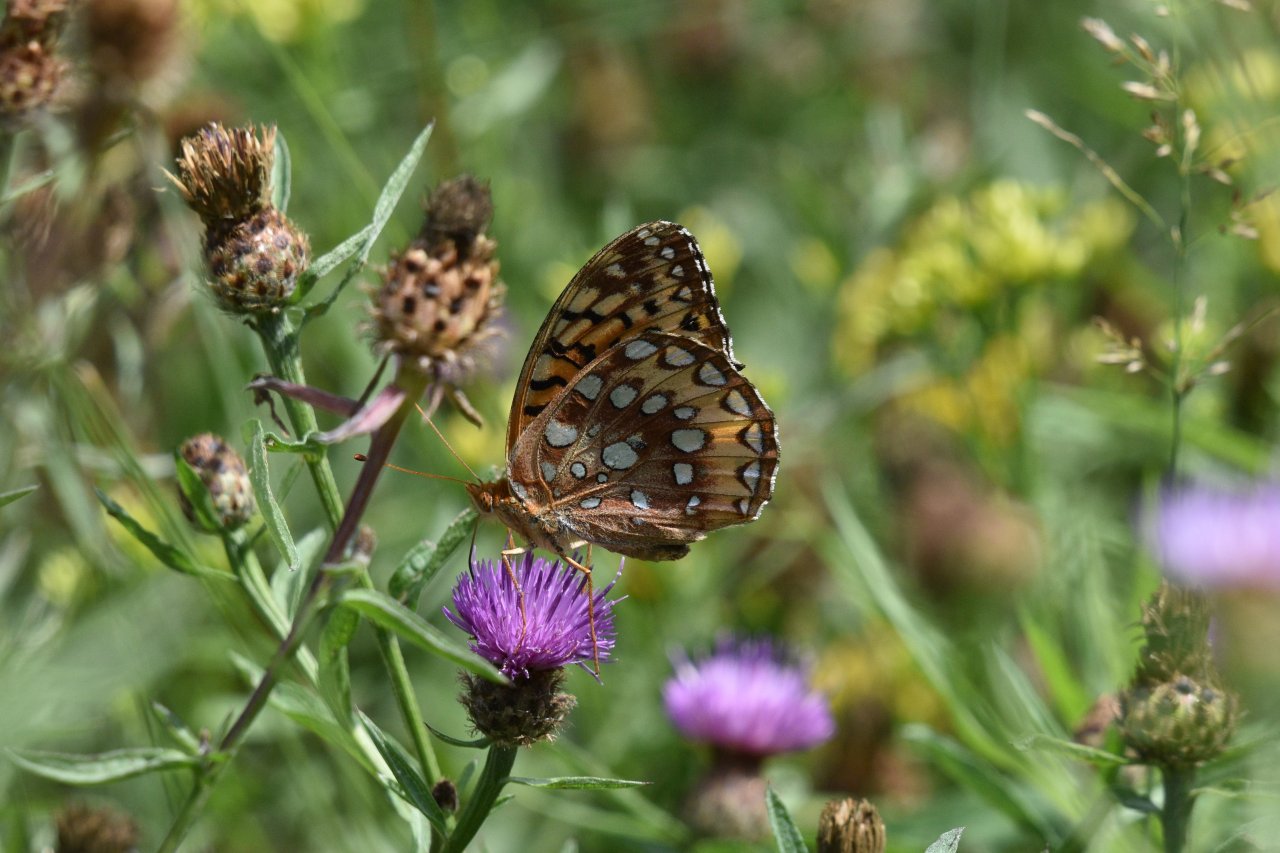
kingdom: Animalia
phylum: Arthropoda
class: Insecta
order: Lepidoptera
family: Nymphalidae
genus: Speyeria
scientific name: Speyeria cybele
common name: Great Spangled Fritillary
